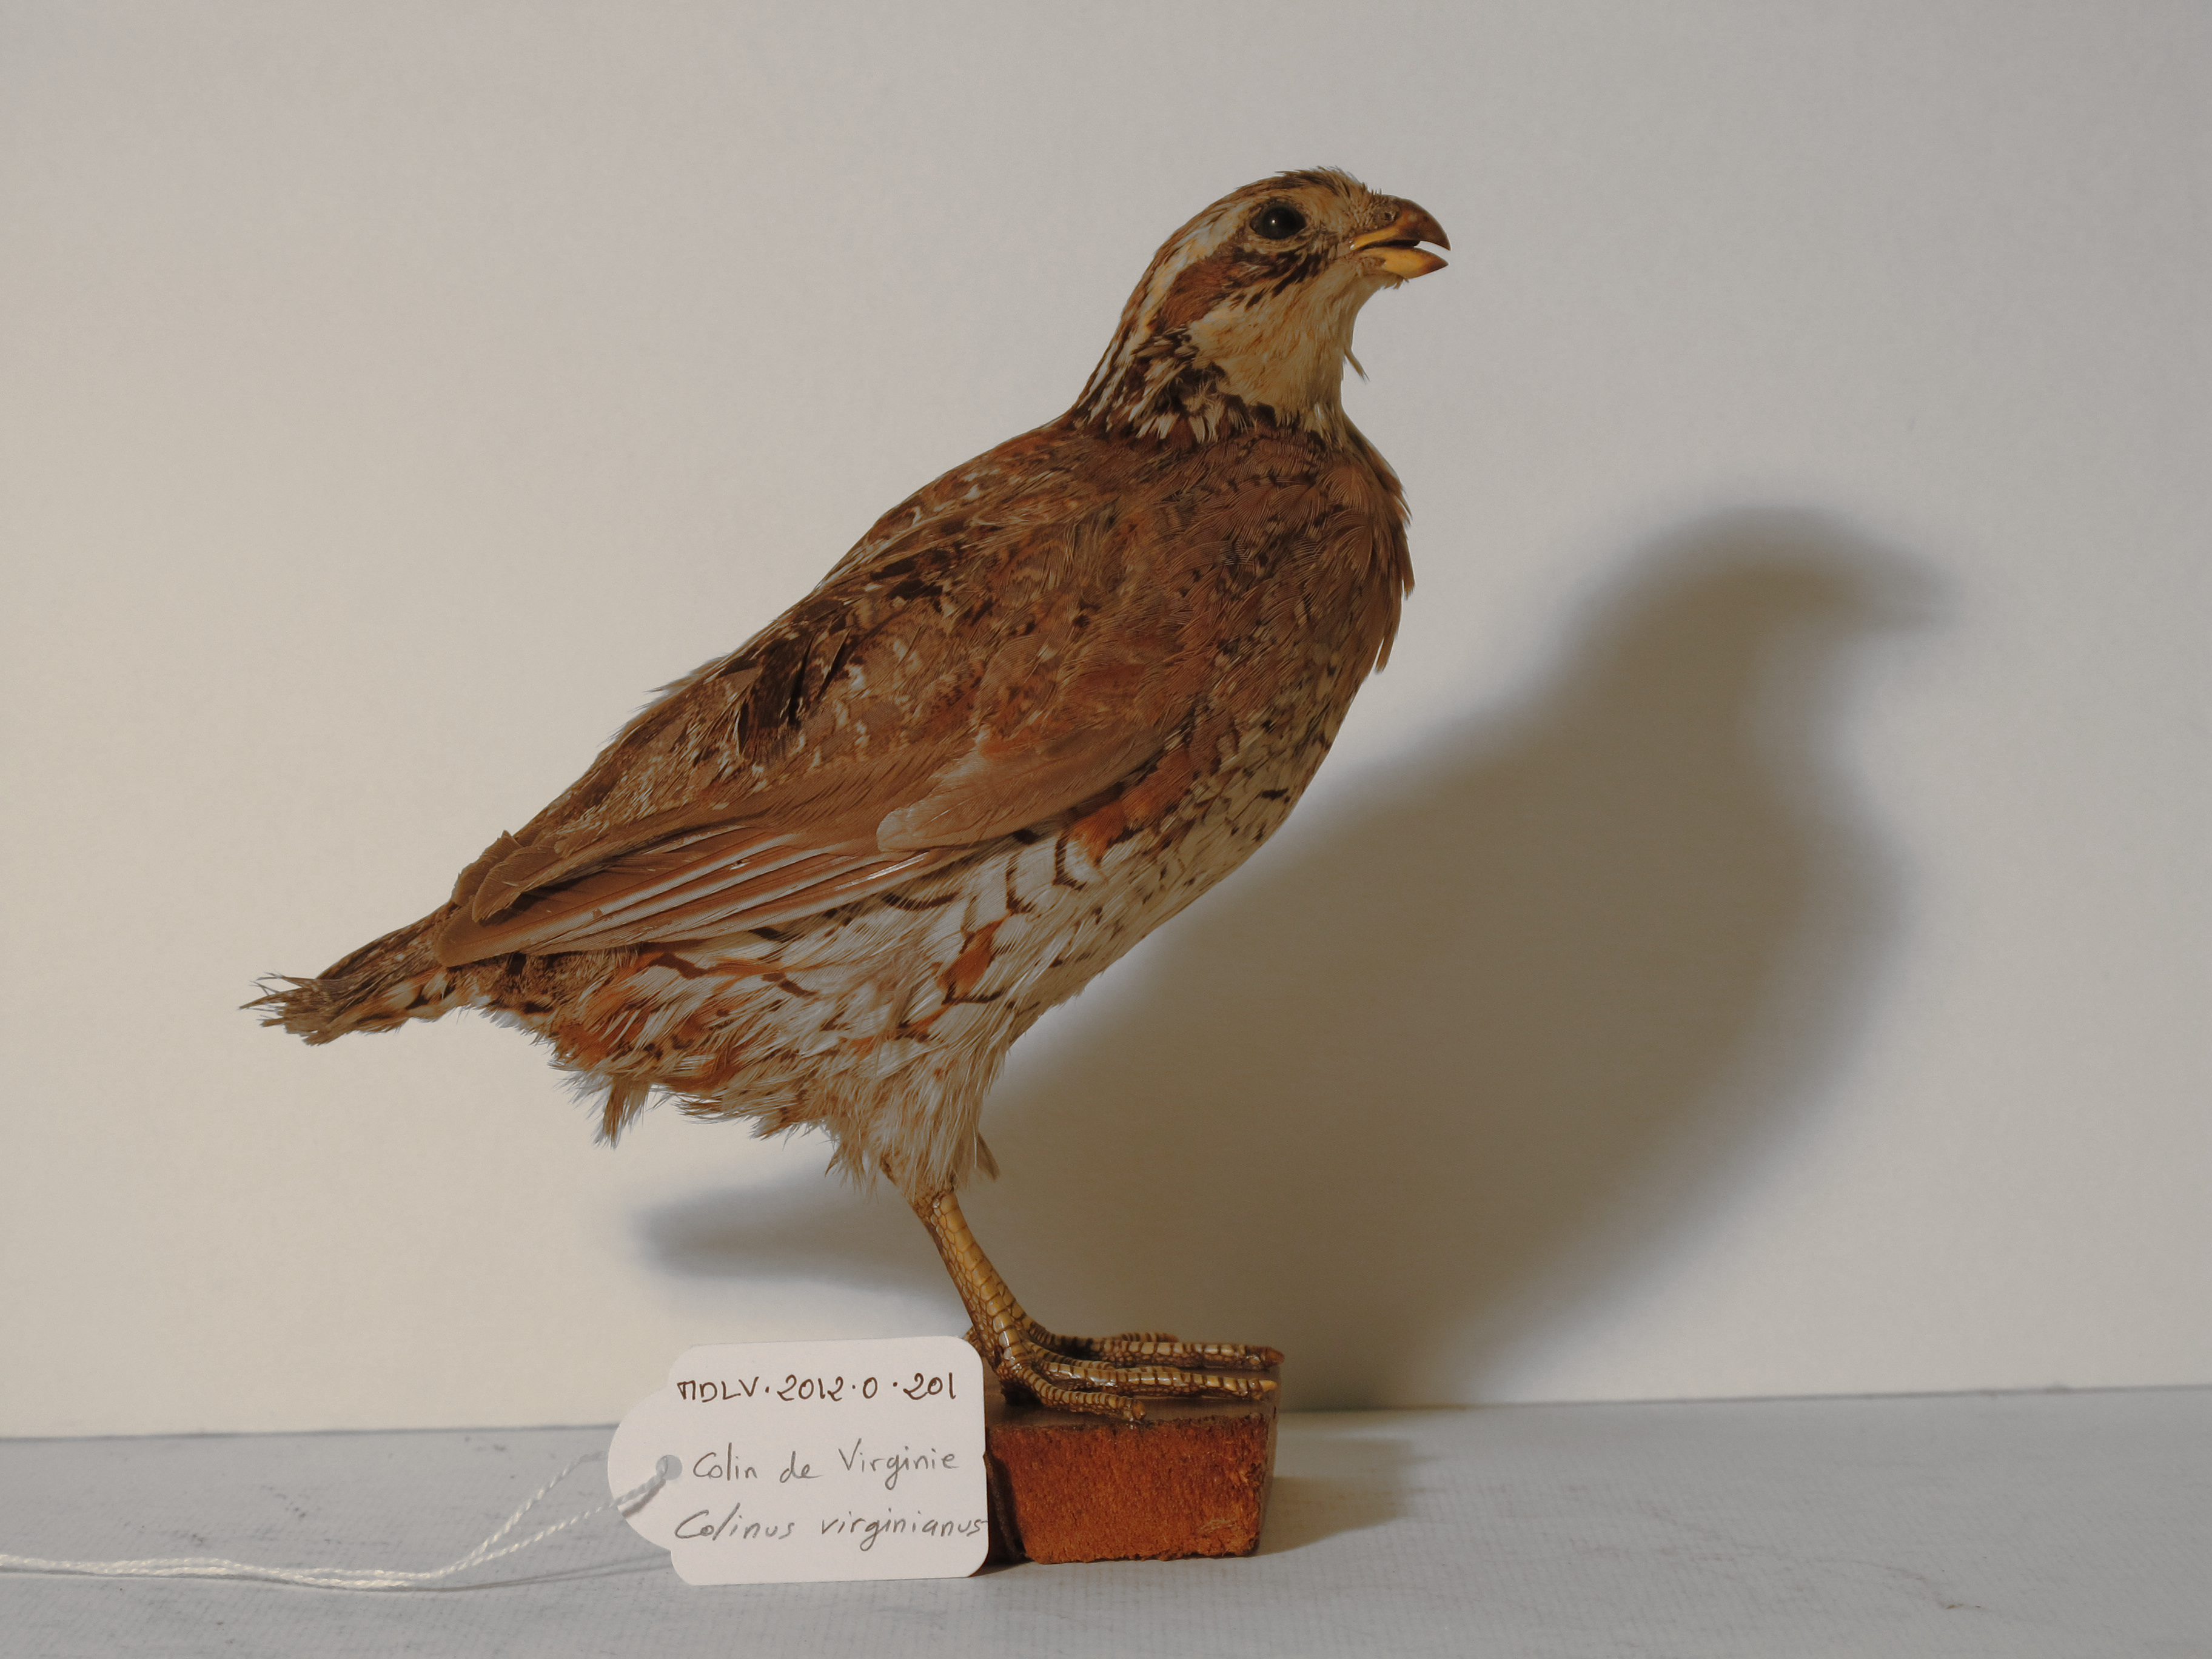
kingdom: Animalia
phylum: Chordata
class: Aves
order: Galliformes
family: Odontophoridae
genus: Colinus
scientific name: Colinus virginianus
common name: Northern Bobwhite
